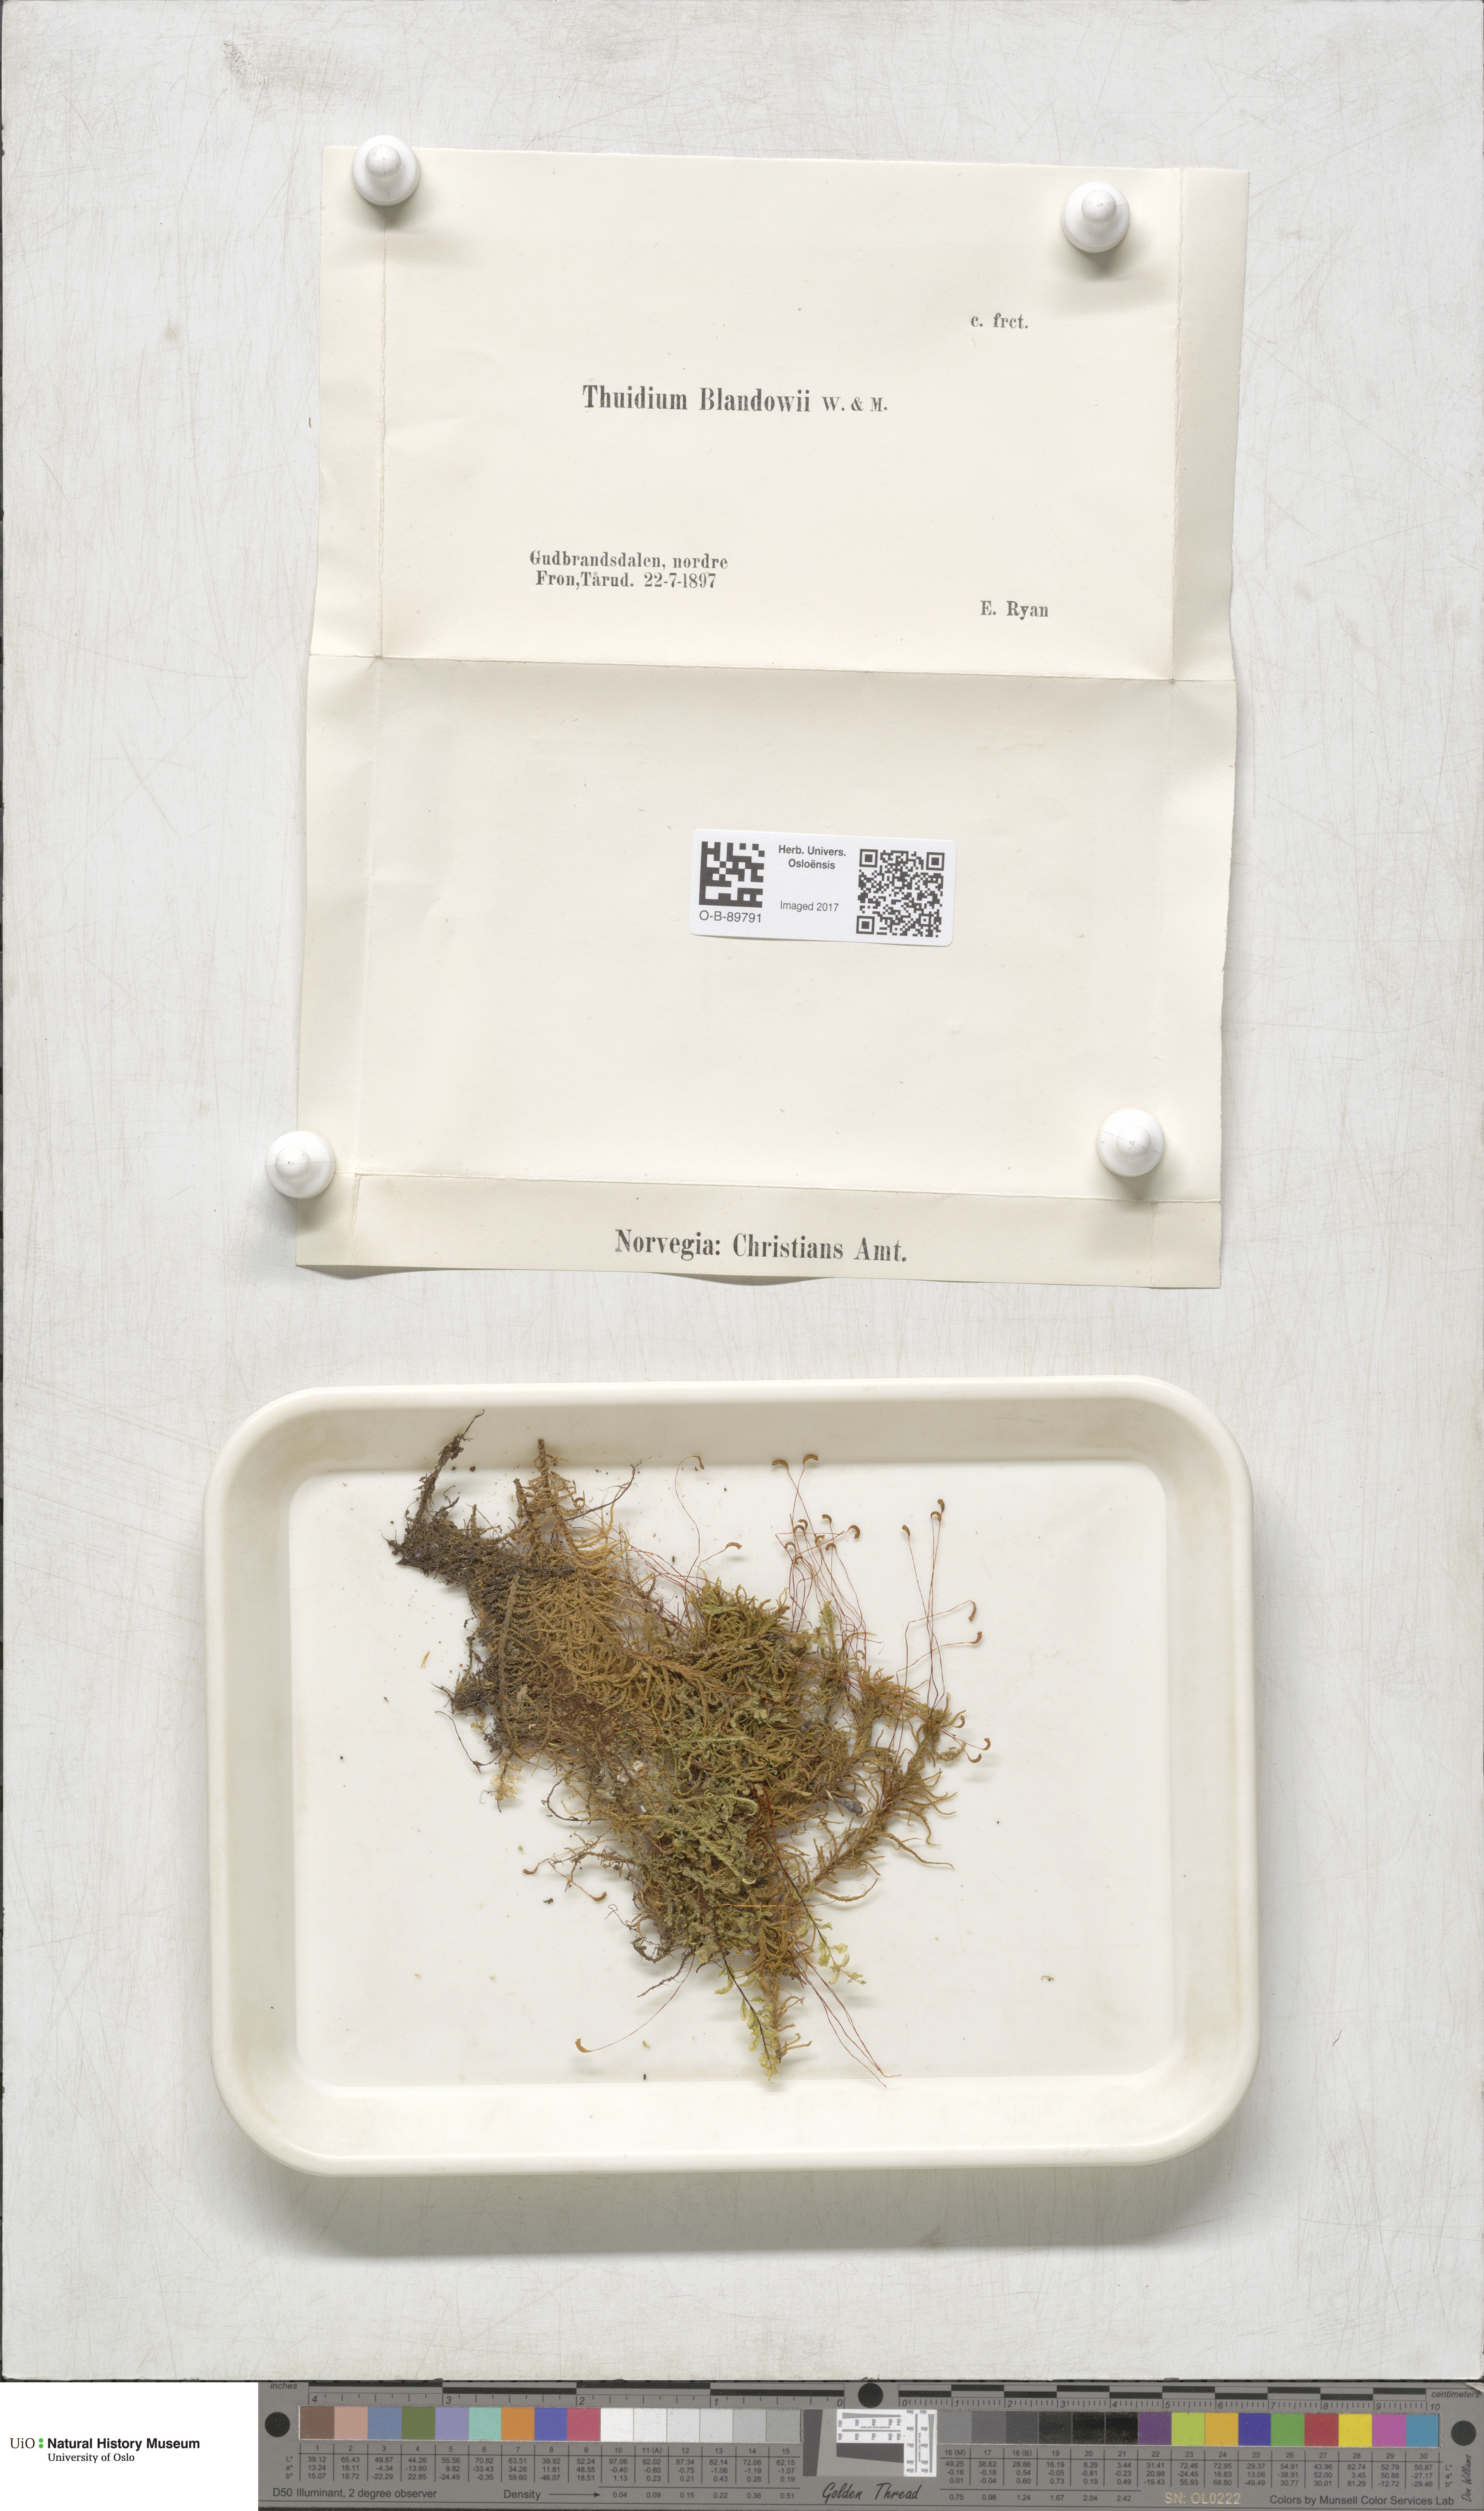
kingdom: Plantae
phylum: Bryophyta
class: Bryopsida
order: Hypnales
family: Helodiaceae
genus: Helodium
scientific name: Helodium blandowii
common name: Blandow's tamarisk-moss
